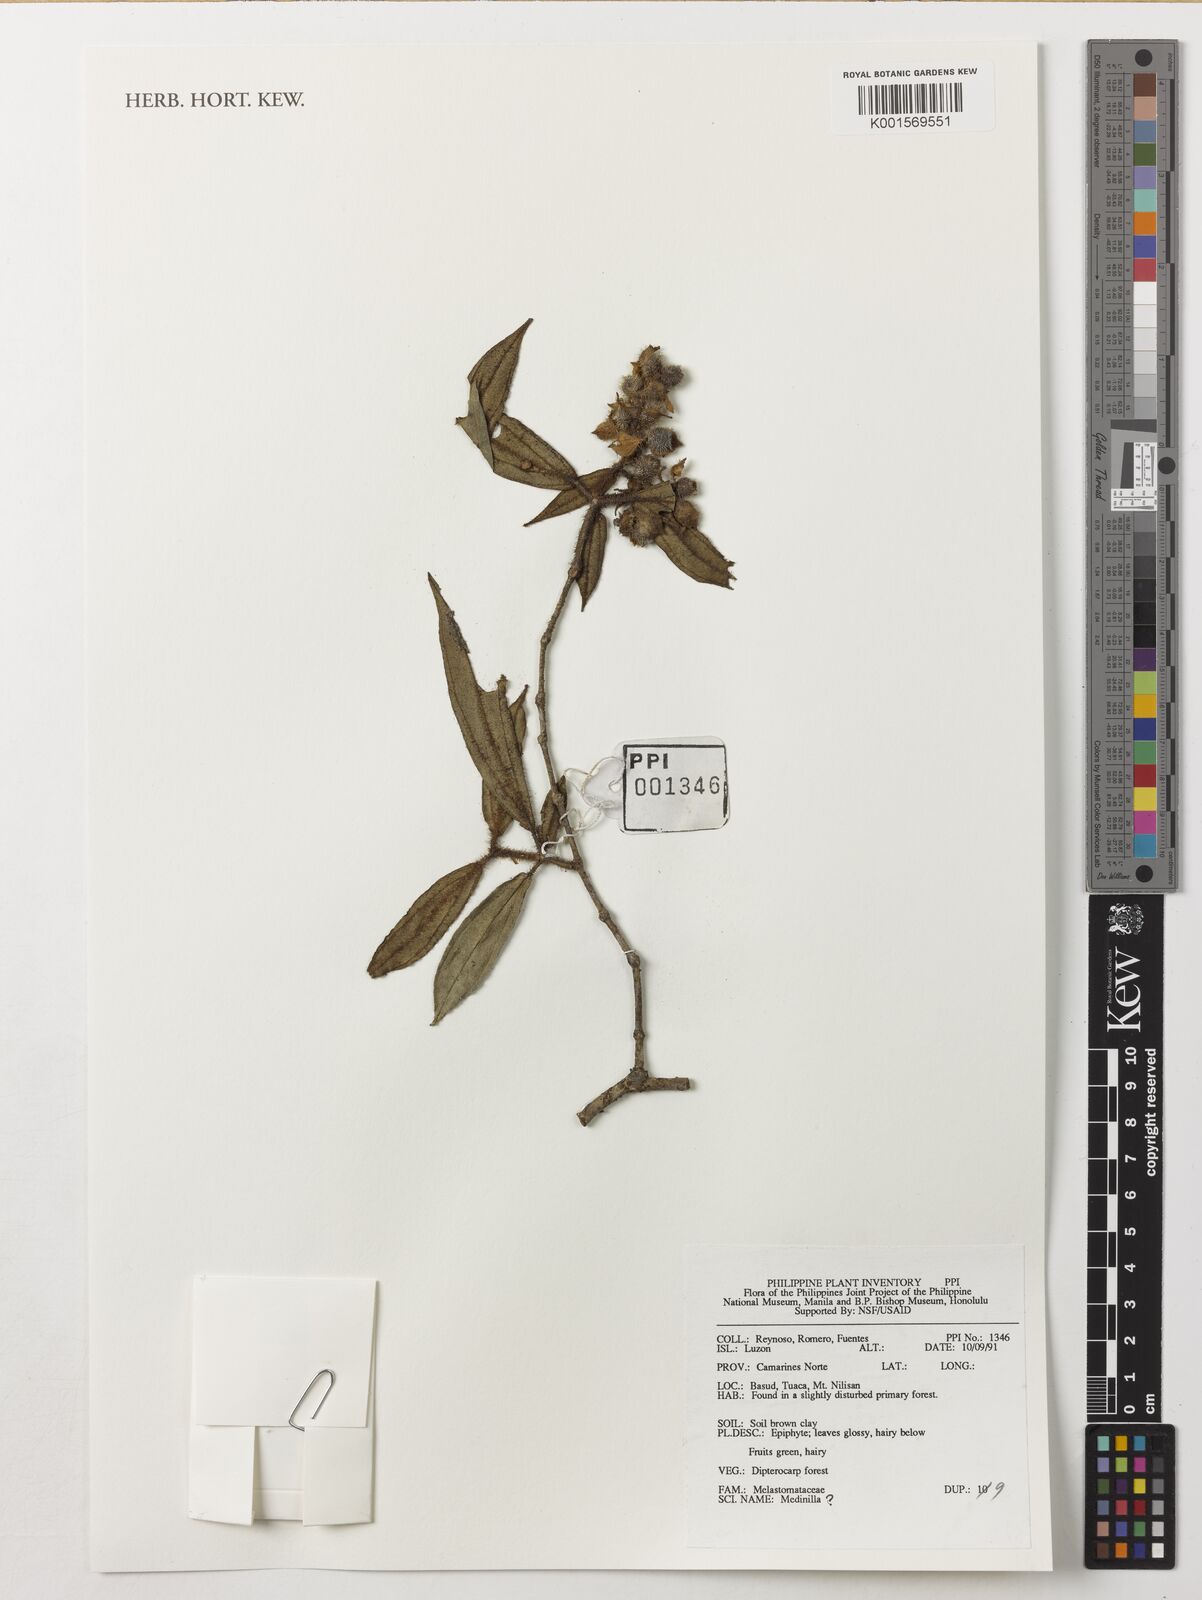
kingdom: Plantae
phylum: Tracheophyta
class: Magnoliopsida
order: Myrtales
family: Melastomataceae
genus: Medinilla
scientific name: Medinilla
